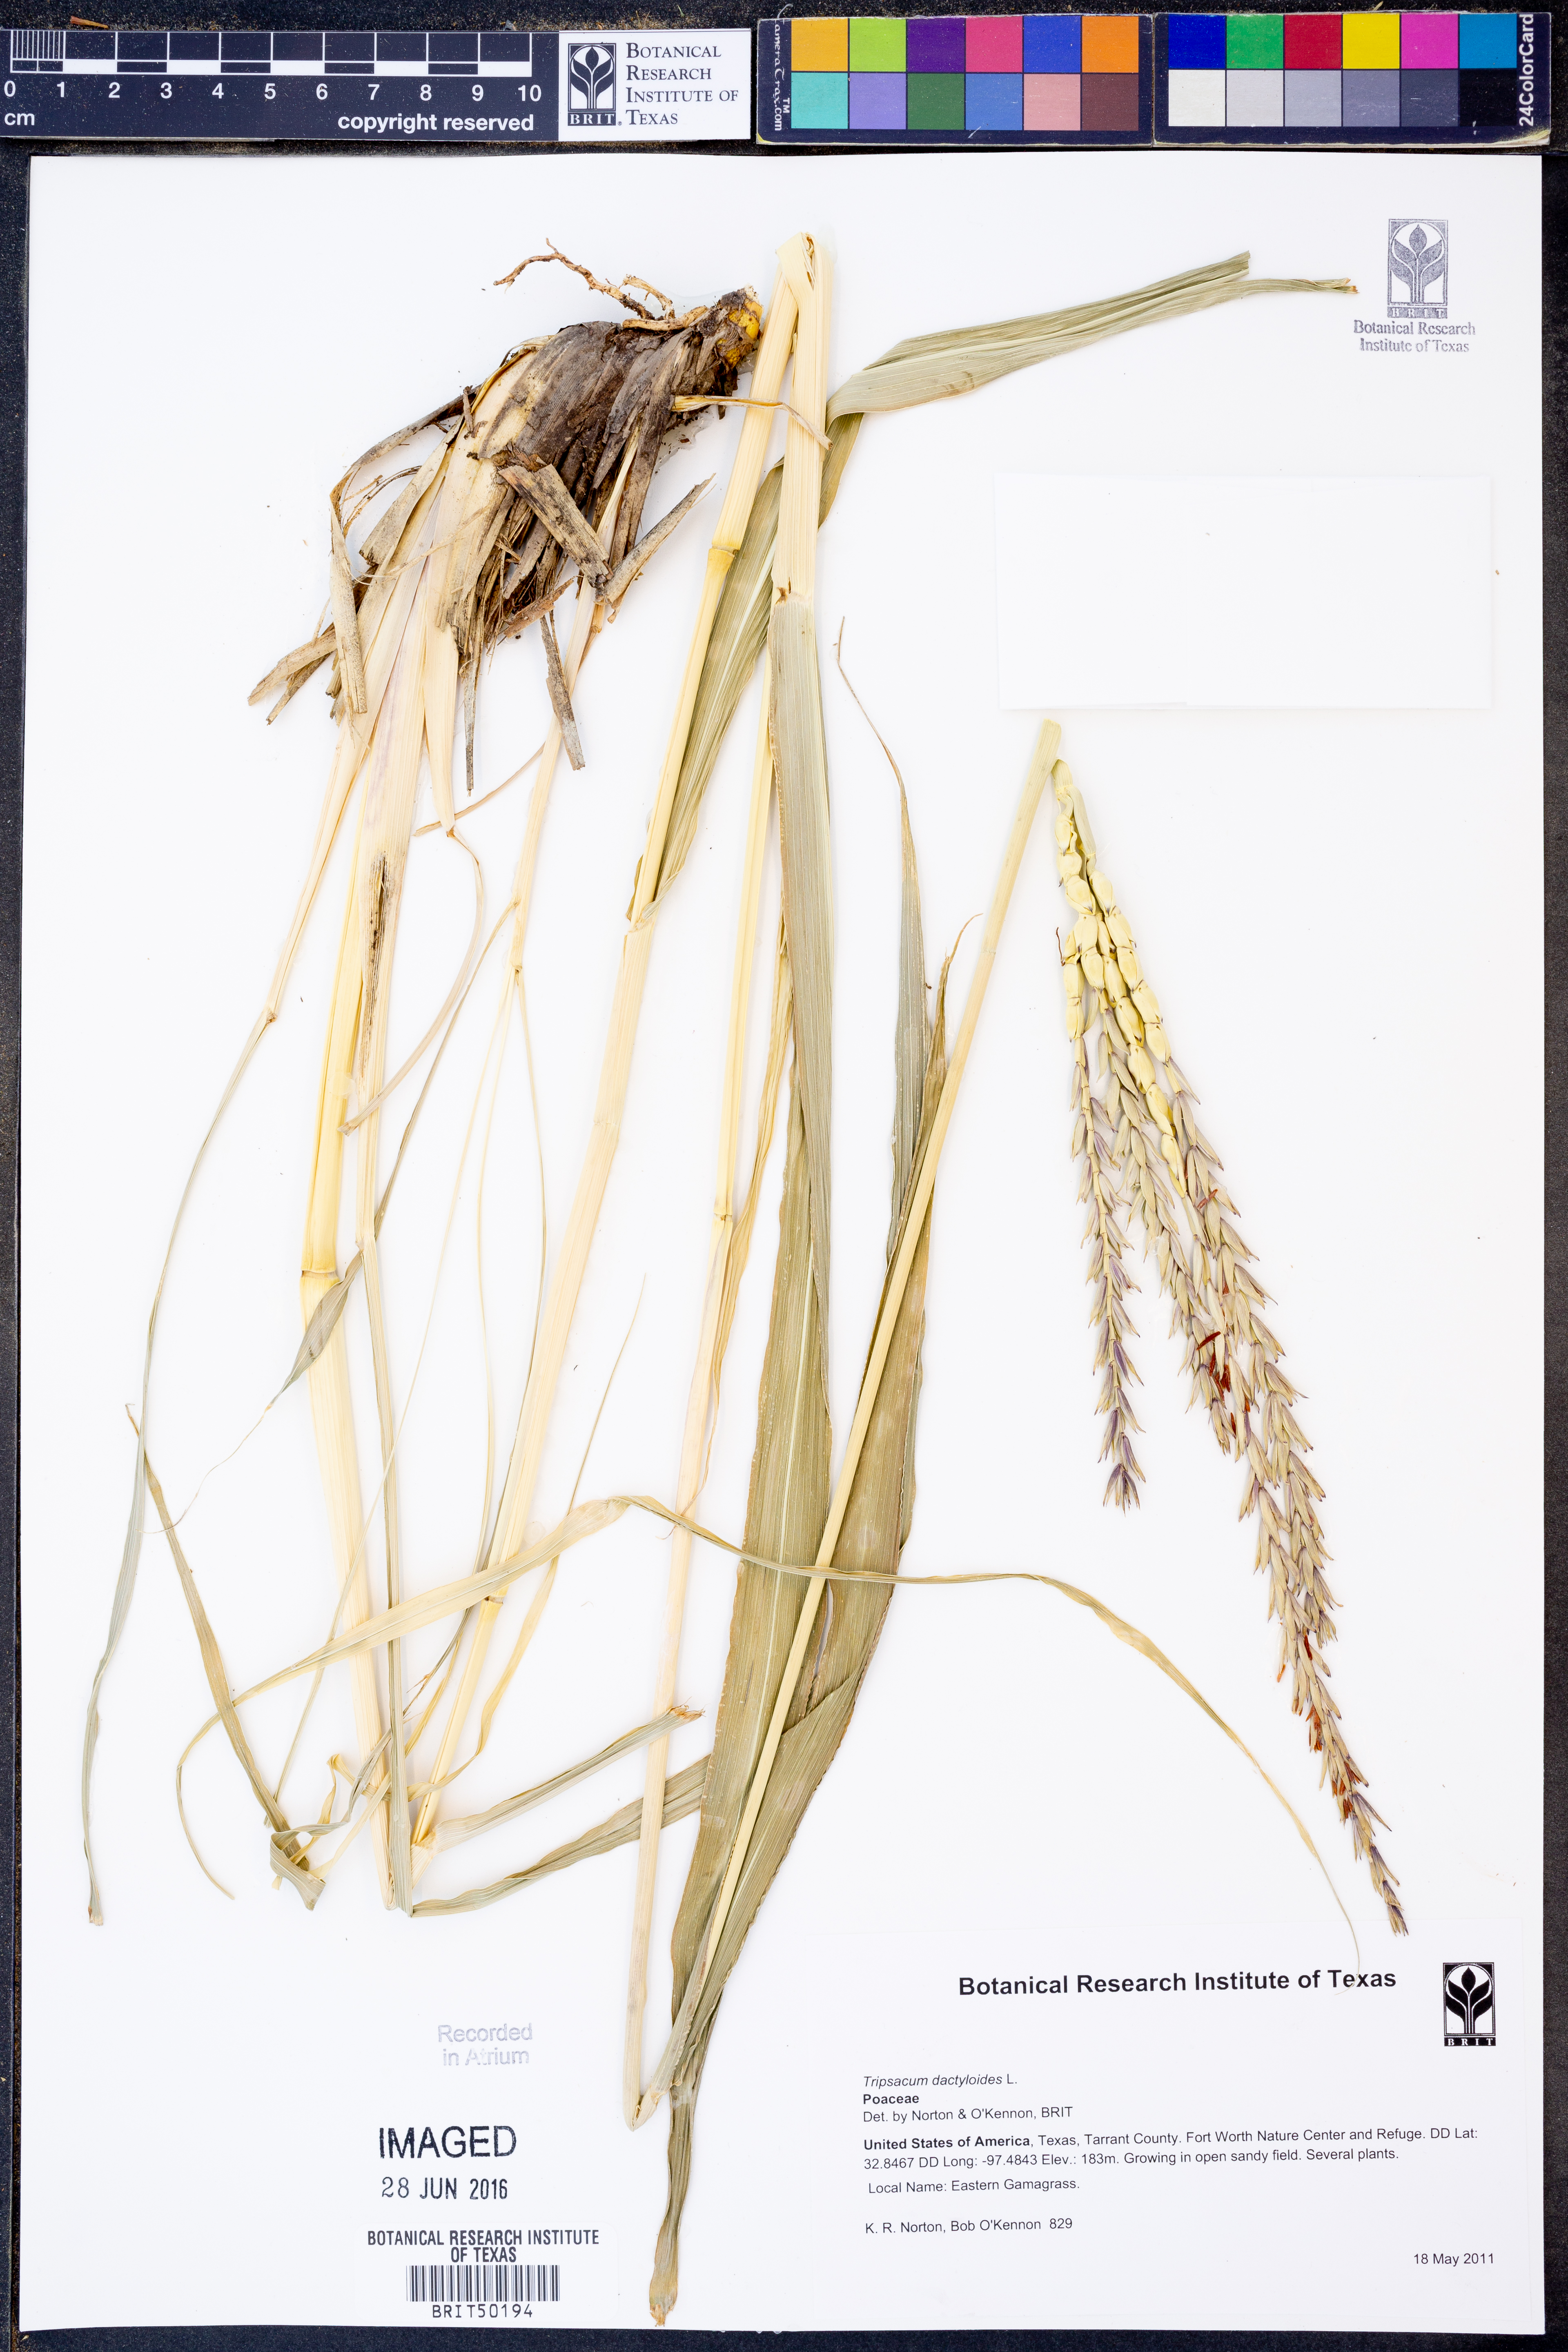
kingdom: Plantae
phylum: Tracheophyta
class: Liliopsida
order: Poales
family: Poaceae
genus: Tripsacum
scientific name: Tripsacum dactyloides
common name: Buffalo-grass
